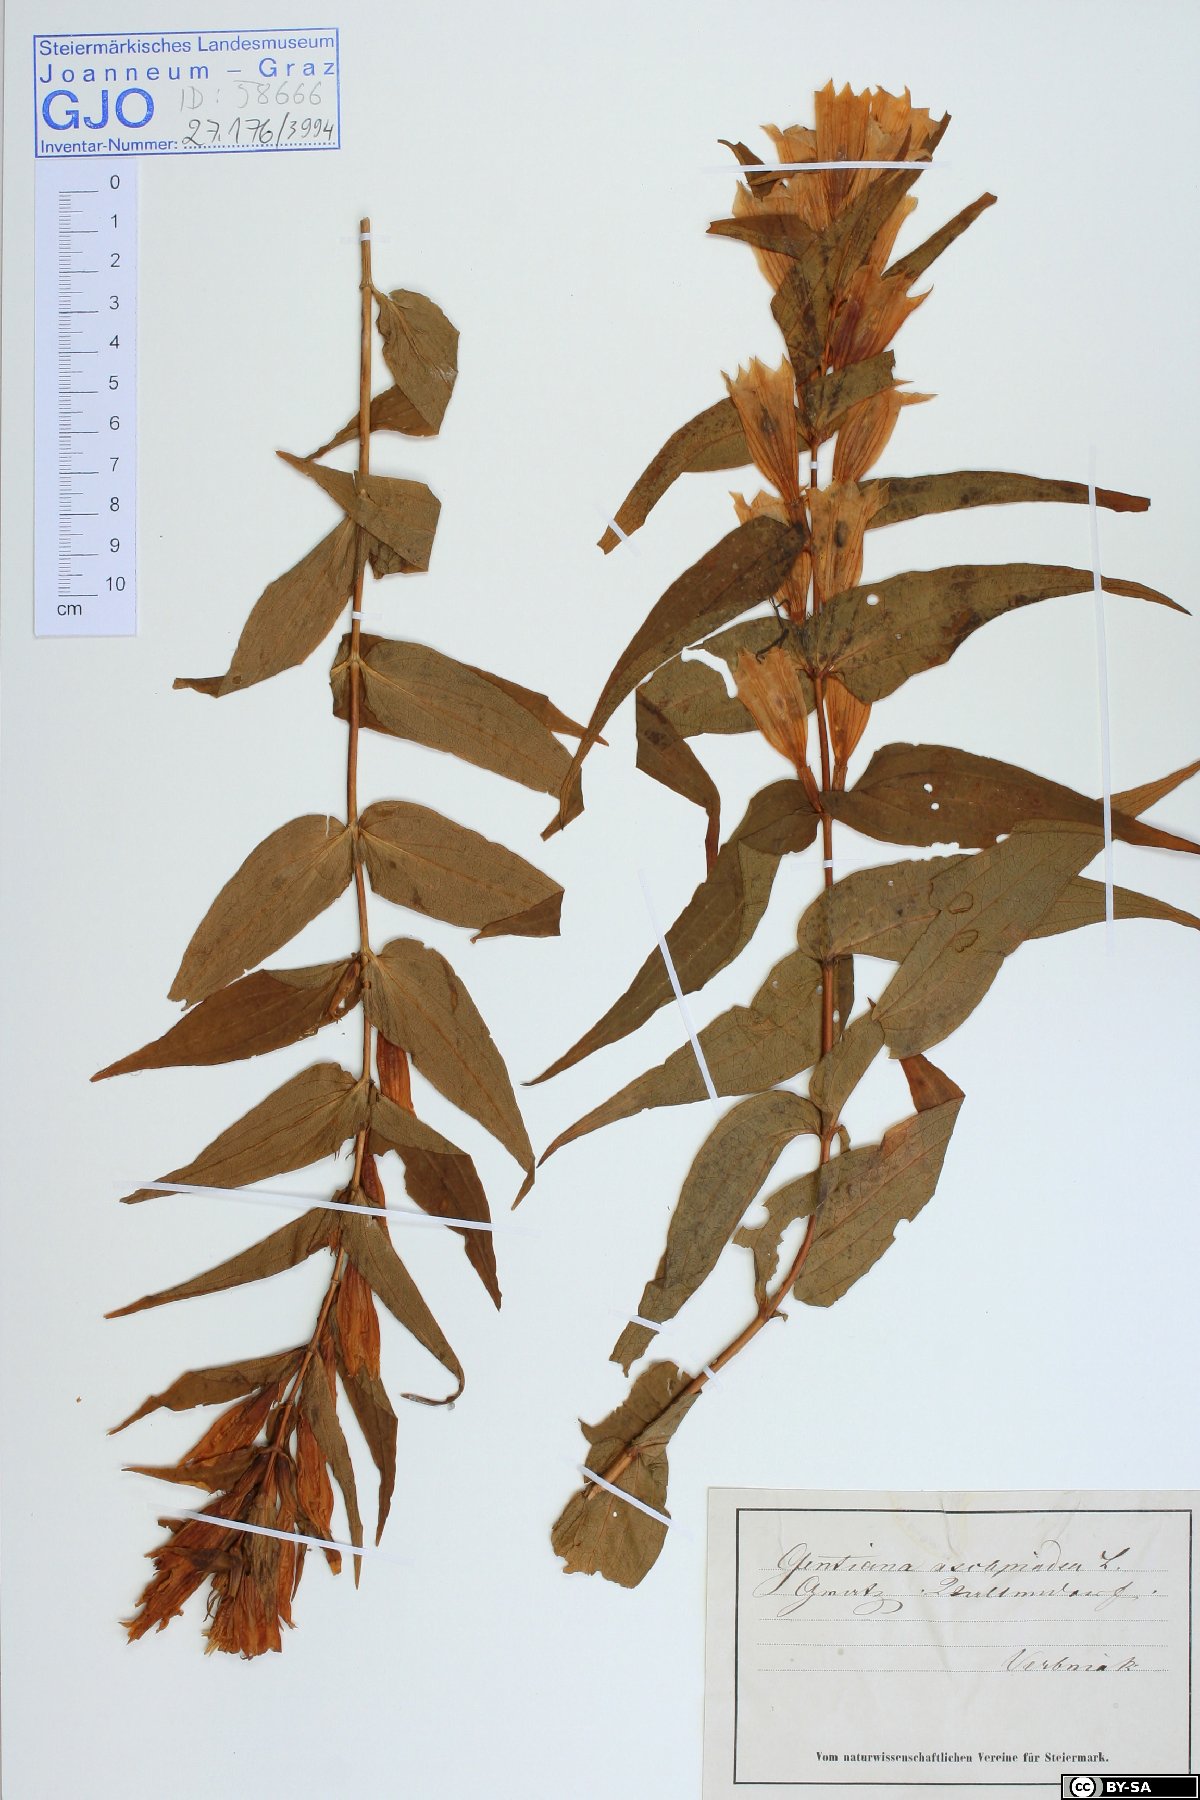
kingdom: Plantae
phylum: Tracheophyta
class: Magnoliopsida
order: Gentianales
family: Gentianaceae
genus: Gentiana
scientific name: Gentiana asclepiadea
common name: Willow gentian
